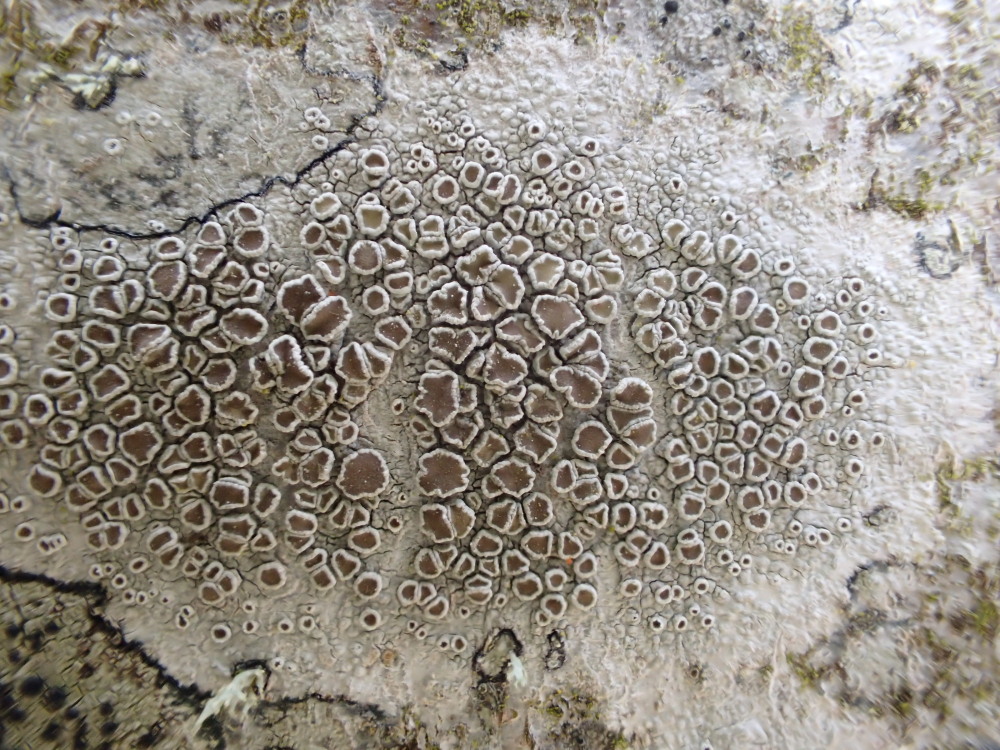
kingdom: Fungi
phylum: Ascomycota
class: Lecanoromycetes
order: Lecanorales
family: Lecanoraceae
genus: Lecanora
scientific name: Lecanora chlarotera
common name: brun kantskivelav
